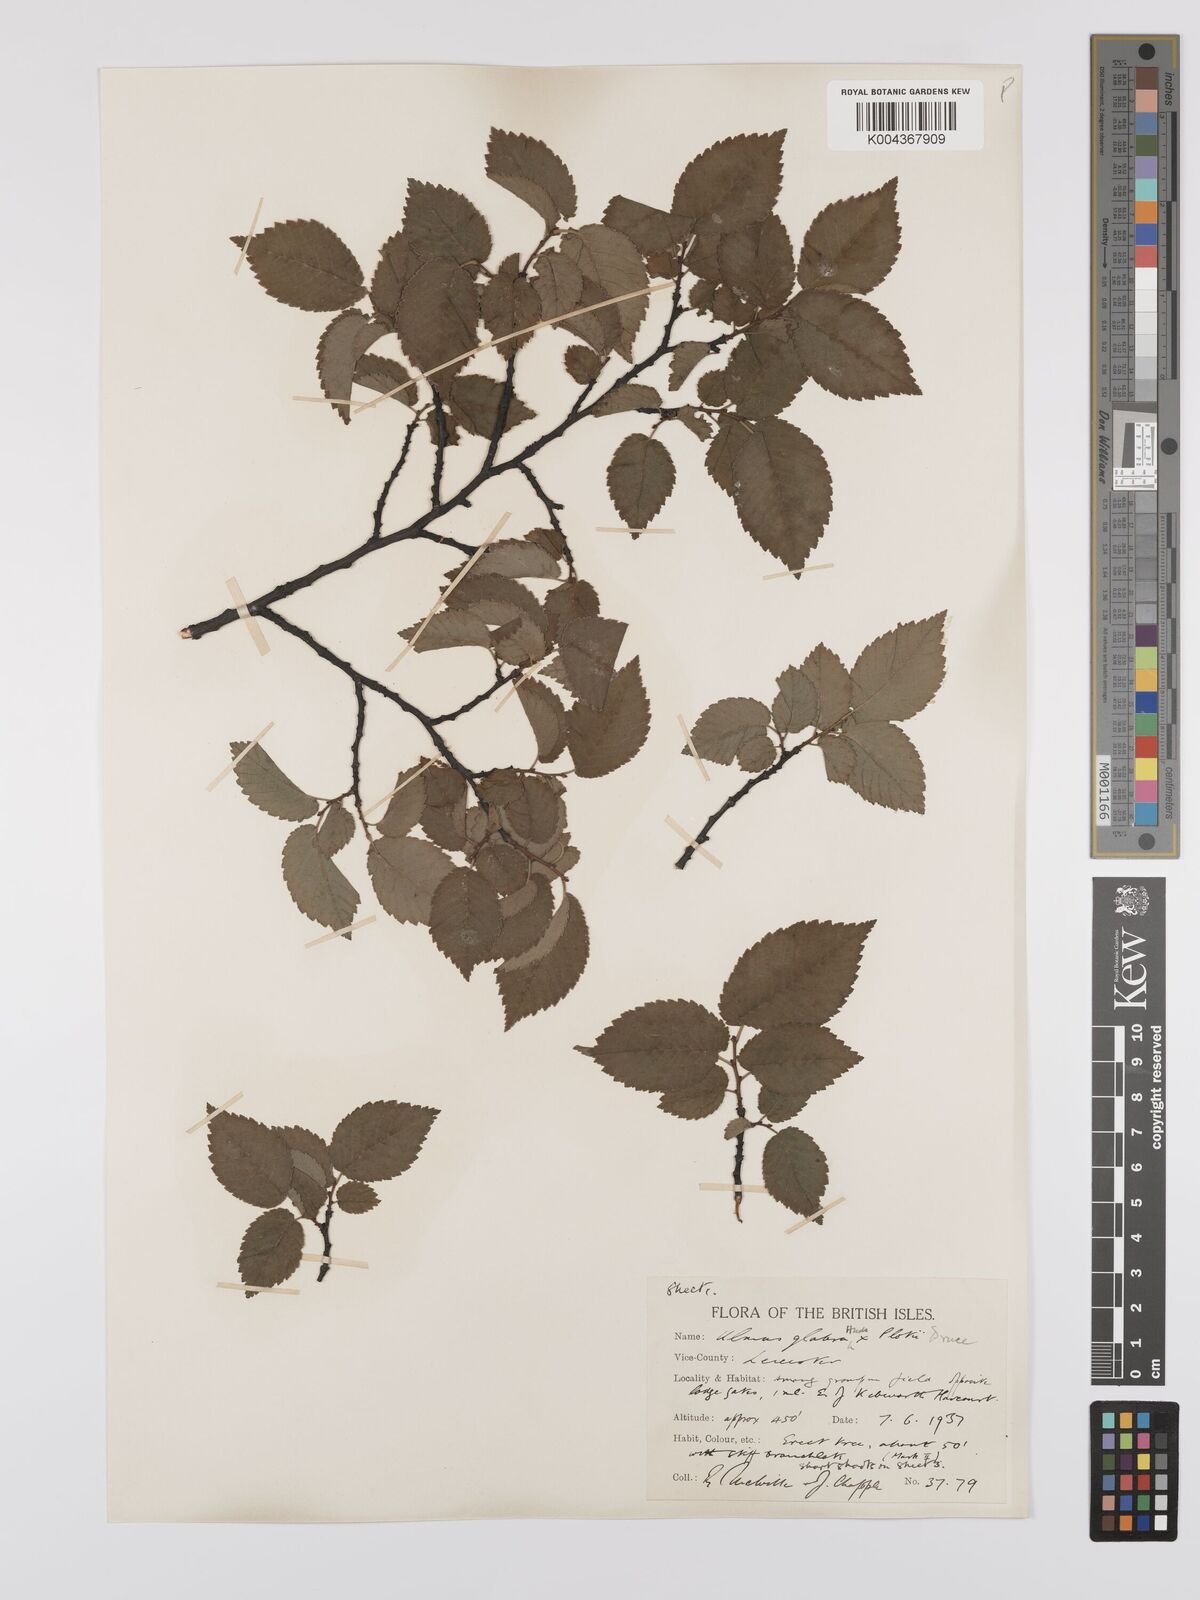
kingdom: Plantae
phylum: Tracheophyta
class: Magnoliopsida
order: Rosales
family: Ulmaceae
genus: Ulmus
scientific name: Ulmus
